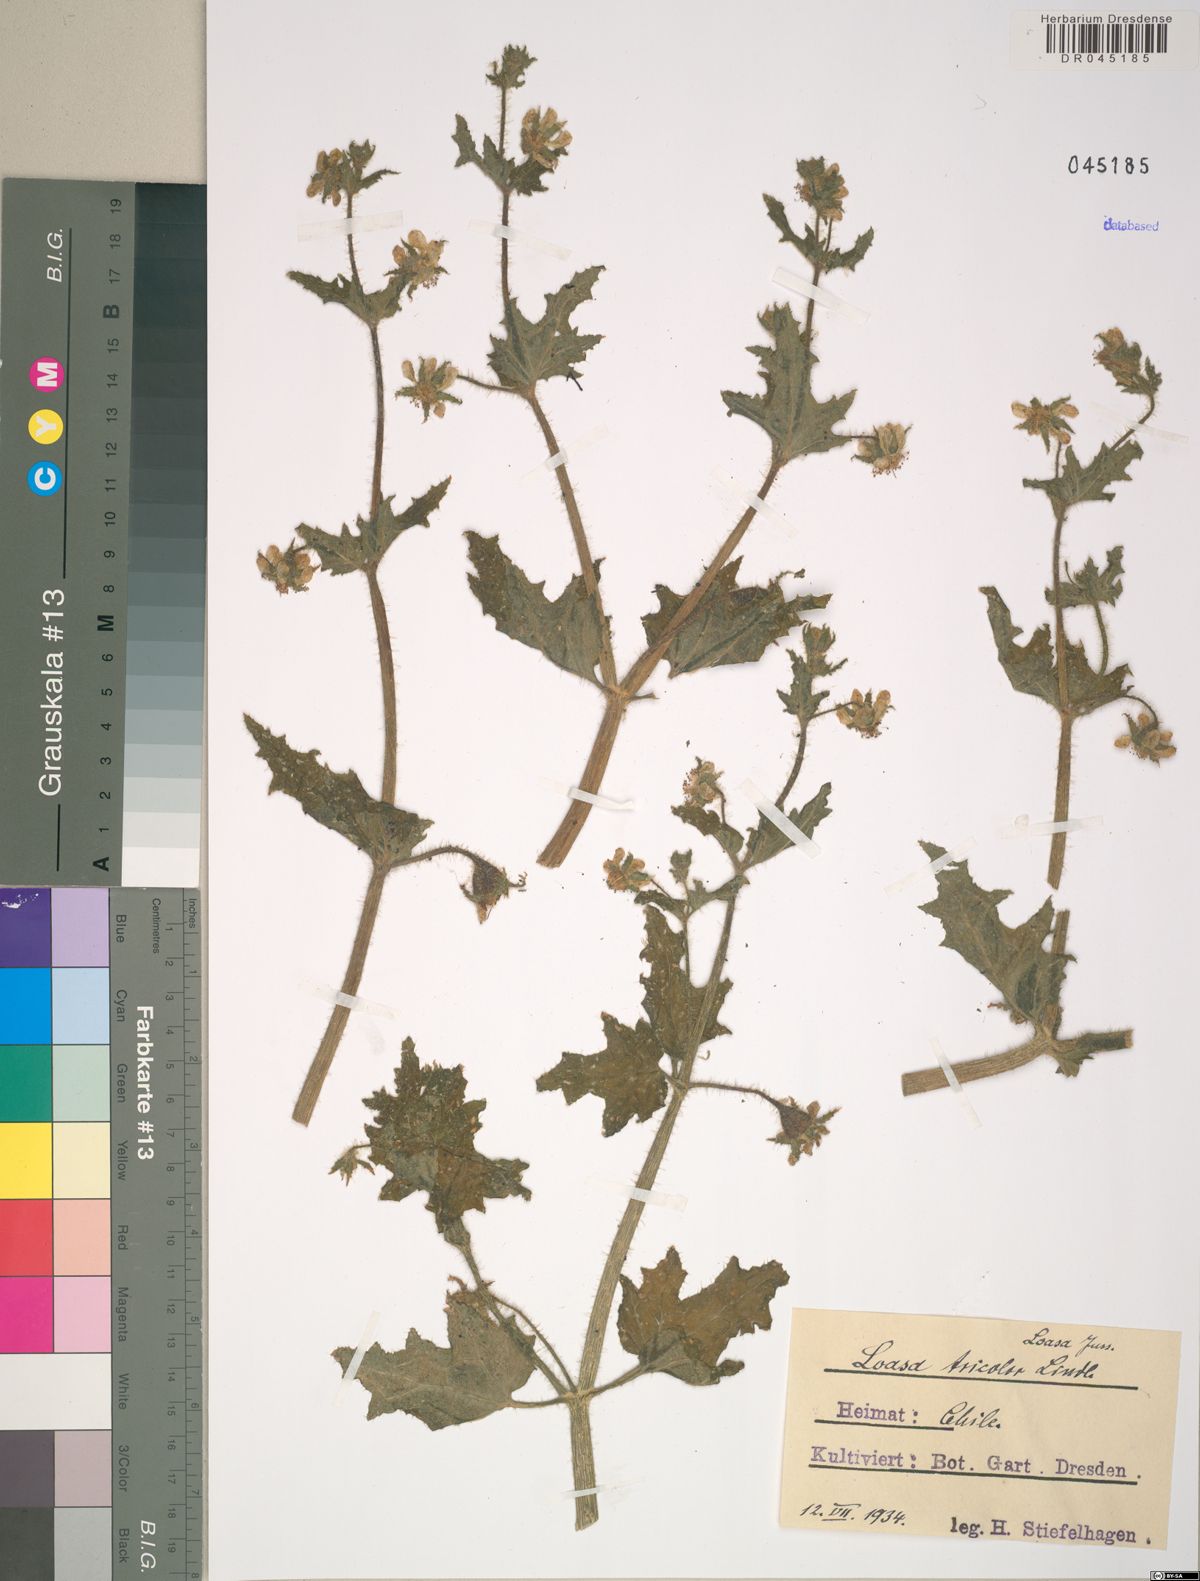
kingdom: Plantae
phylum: Tracheophyta
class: Magnoliopsida
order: Cornales
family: Loasaceae
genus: Loasa
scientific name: Loasa tricolor
